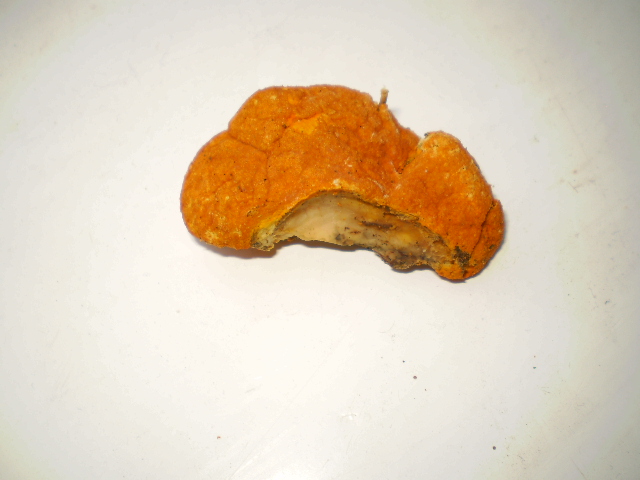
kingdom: Fungi
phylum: Ascomycota
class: Sordariomycetes
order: Hypocreales
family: Hypocreaceae
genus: Hypomyces
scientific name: Hypomyces aurantius
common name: almindelig snylteskorpe
